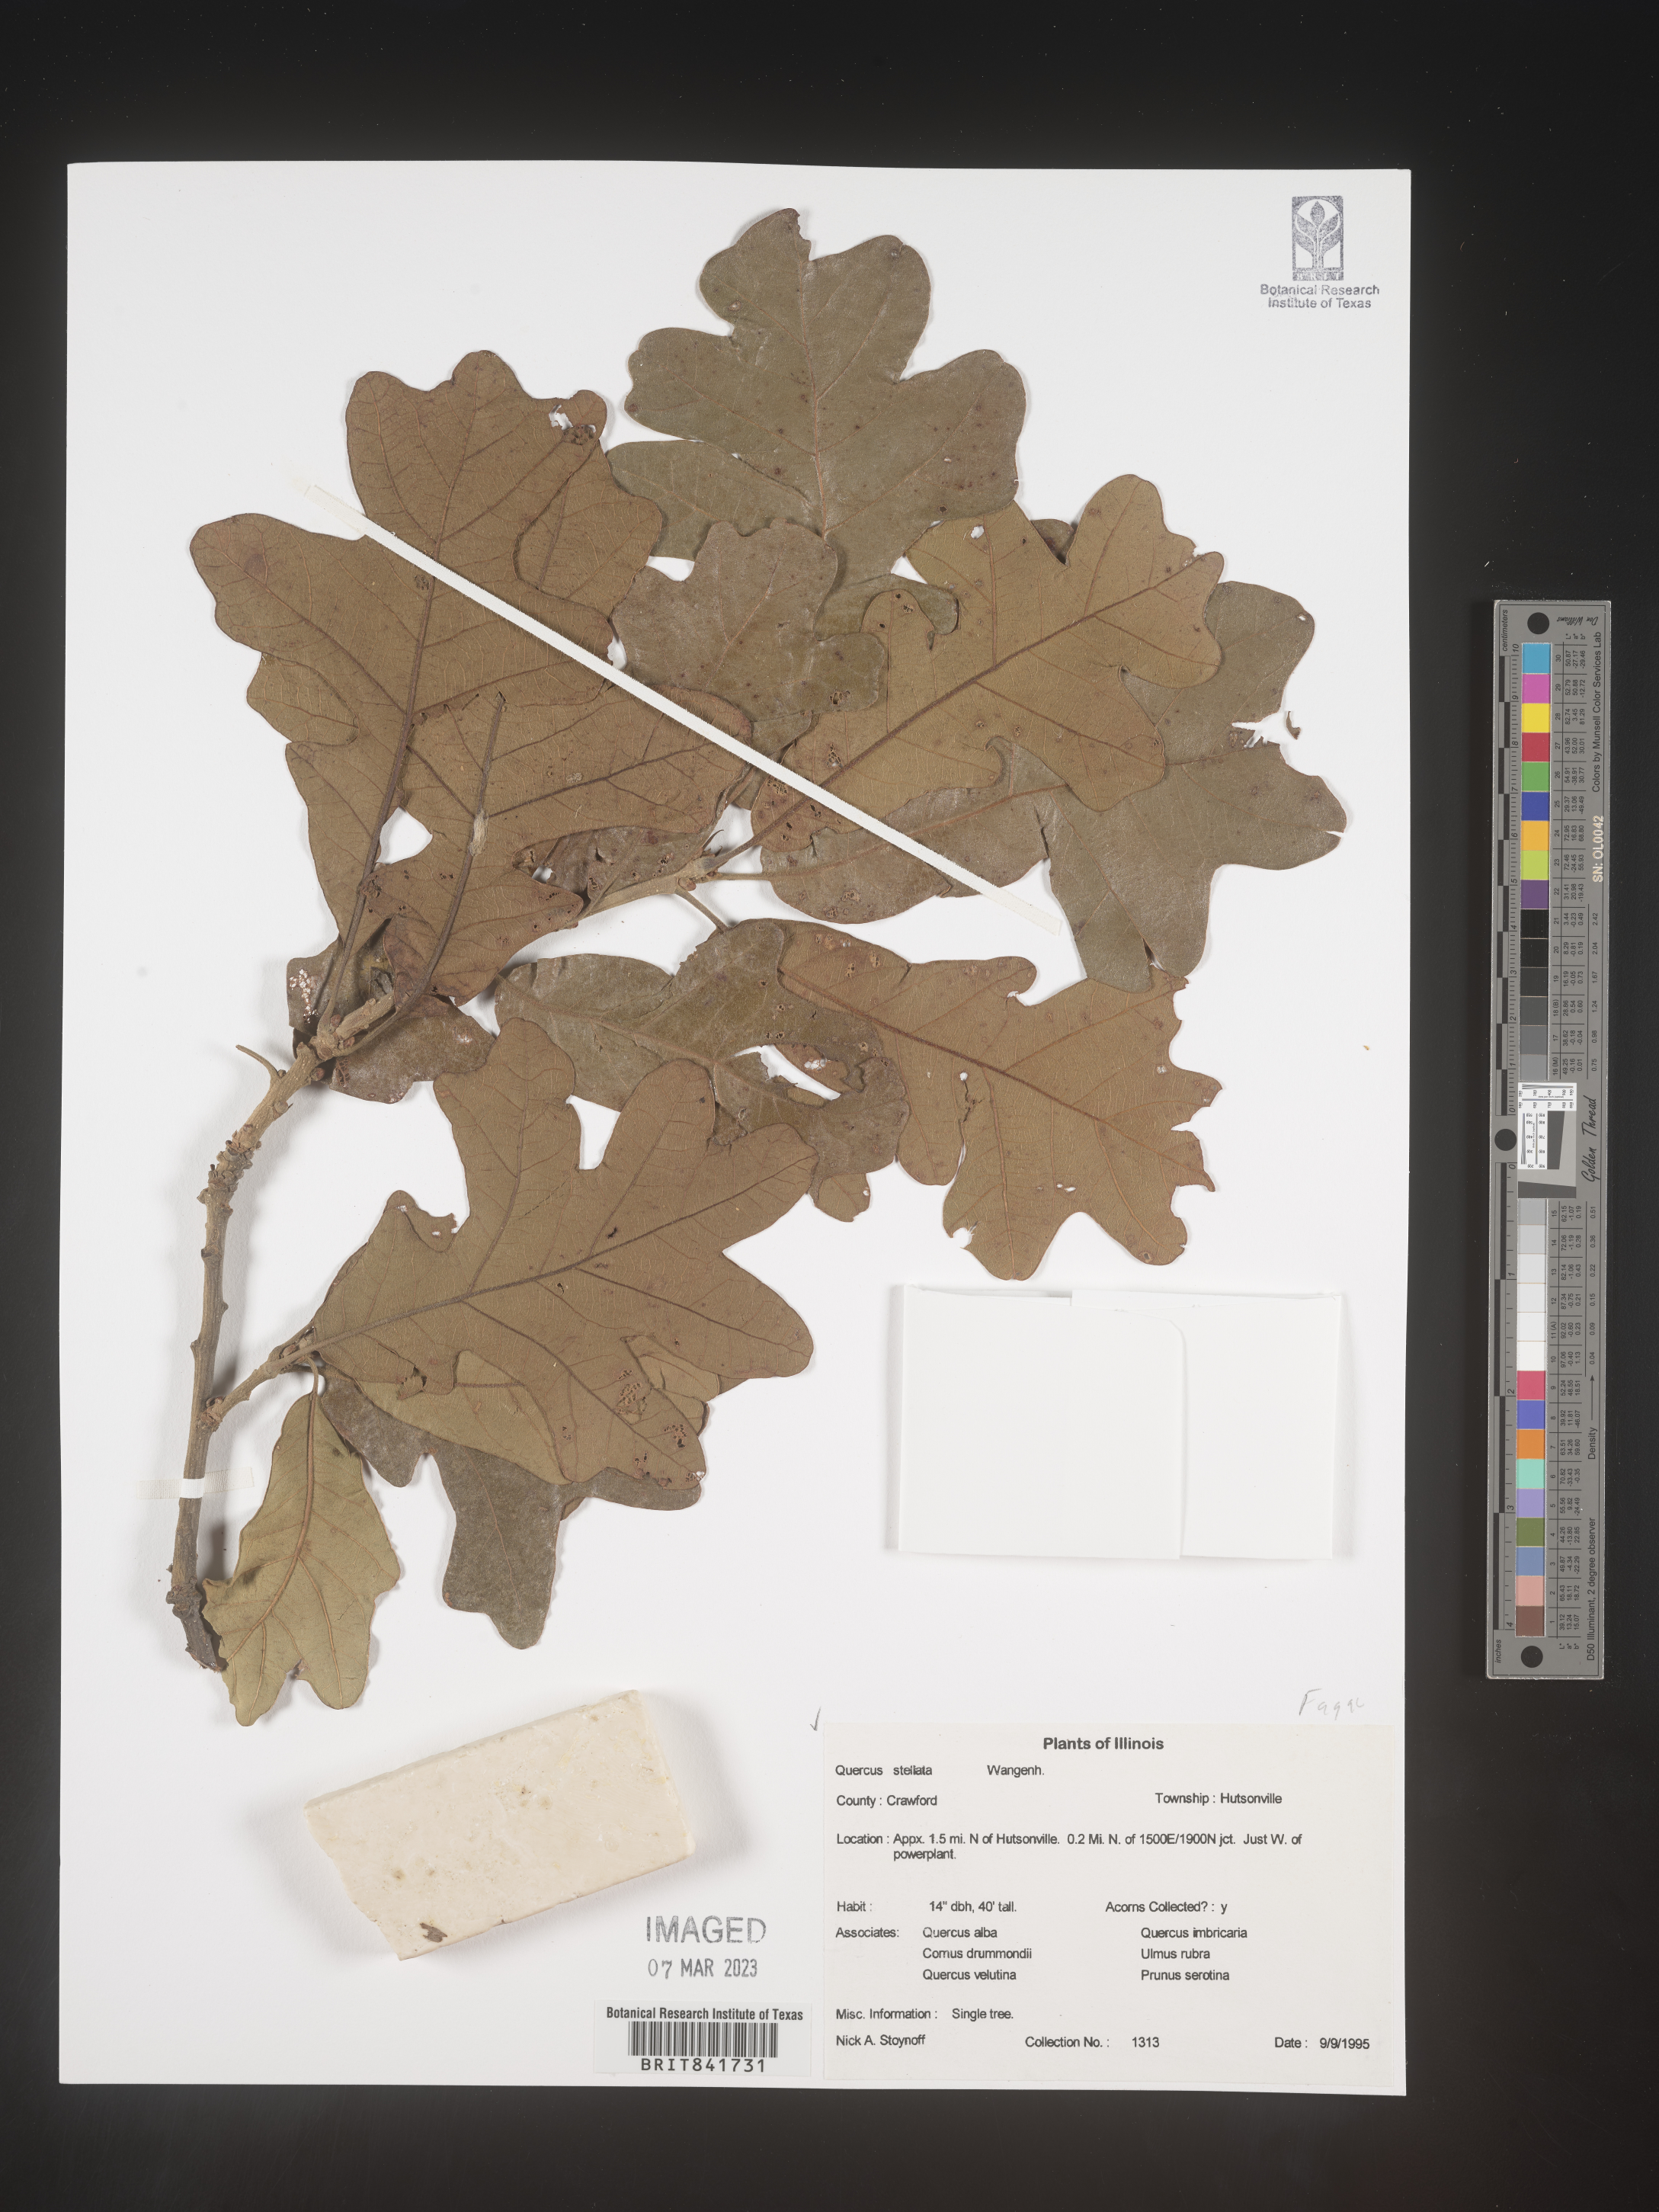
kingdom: Plantae
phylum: Tracheophyta
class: Magnoliopsida
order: Fagales
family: Fagaceae
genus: Quercus
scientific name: Quercus stellata
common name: Post oak
